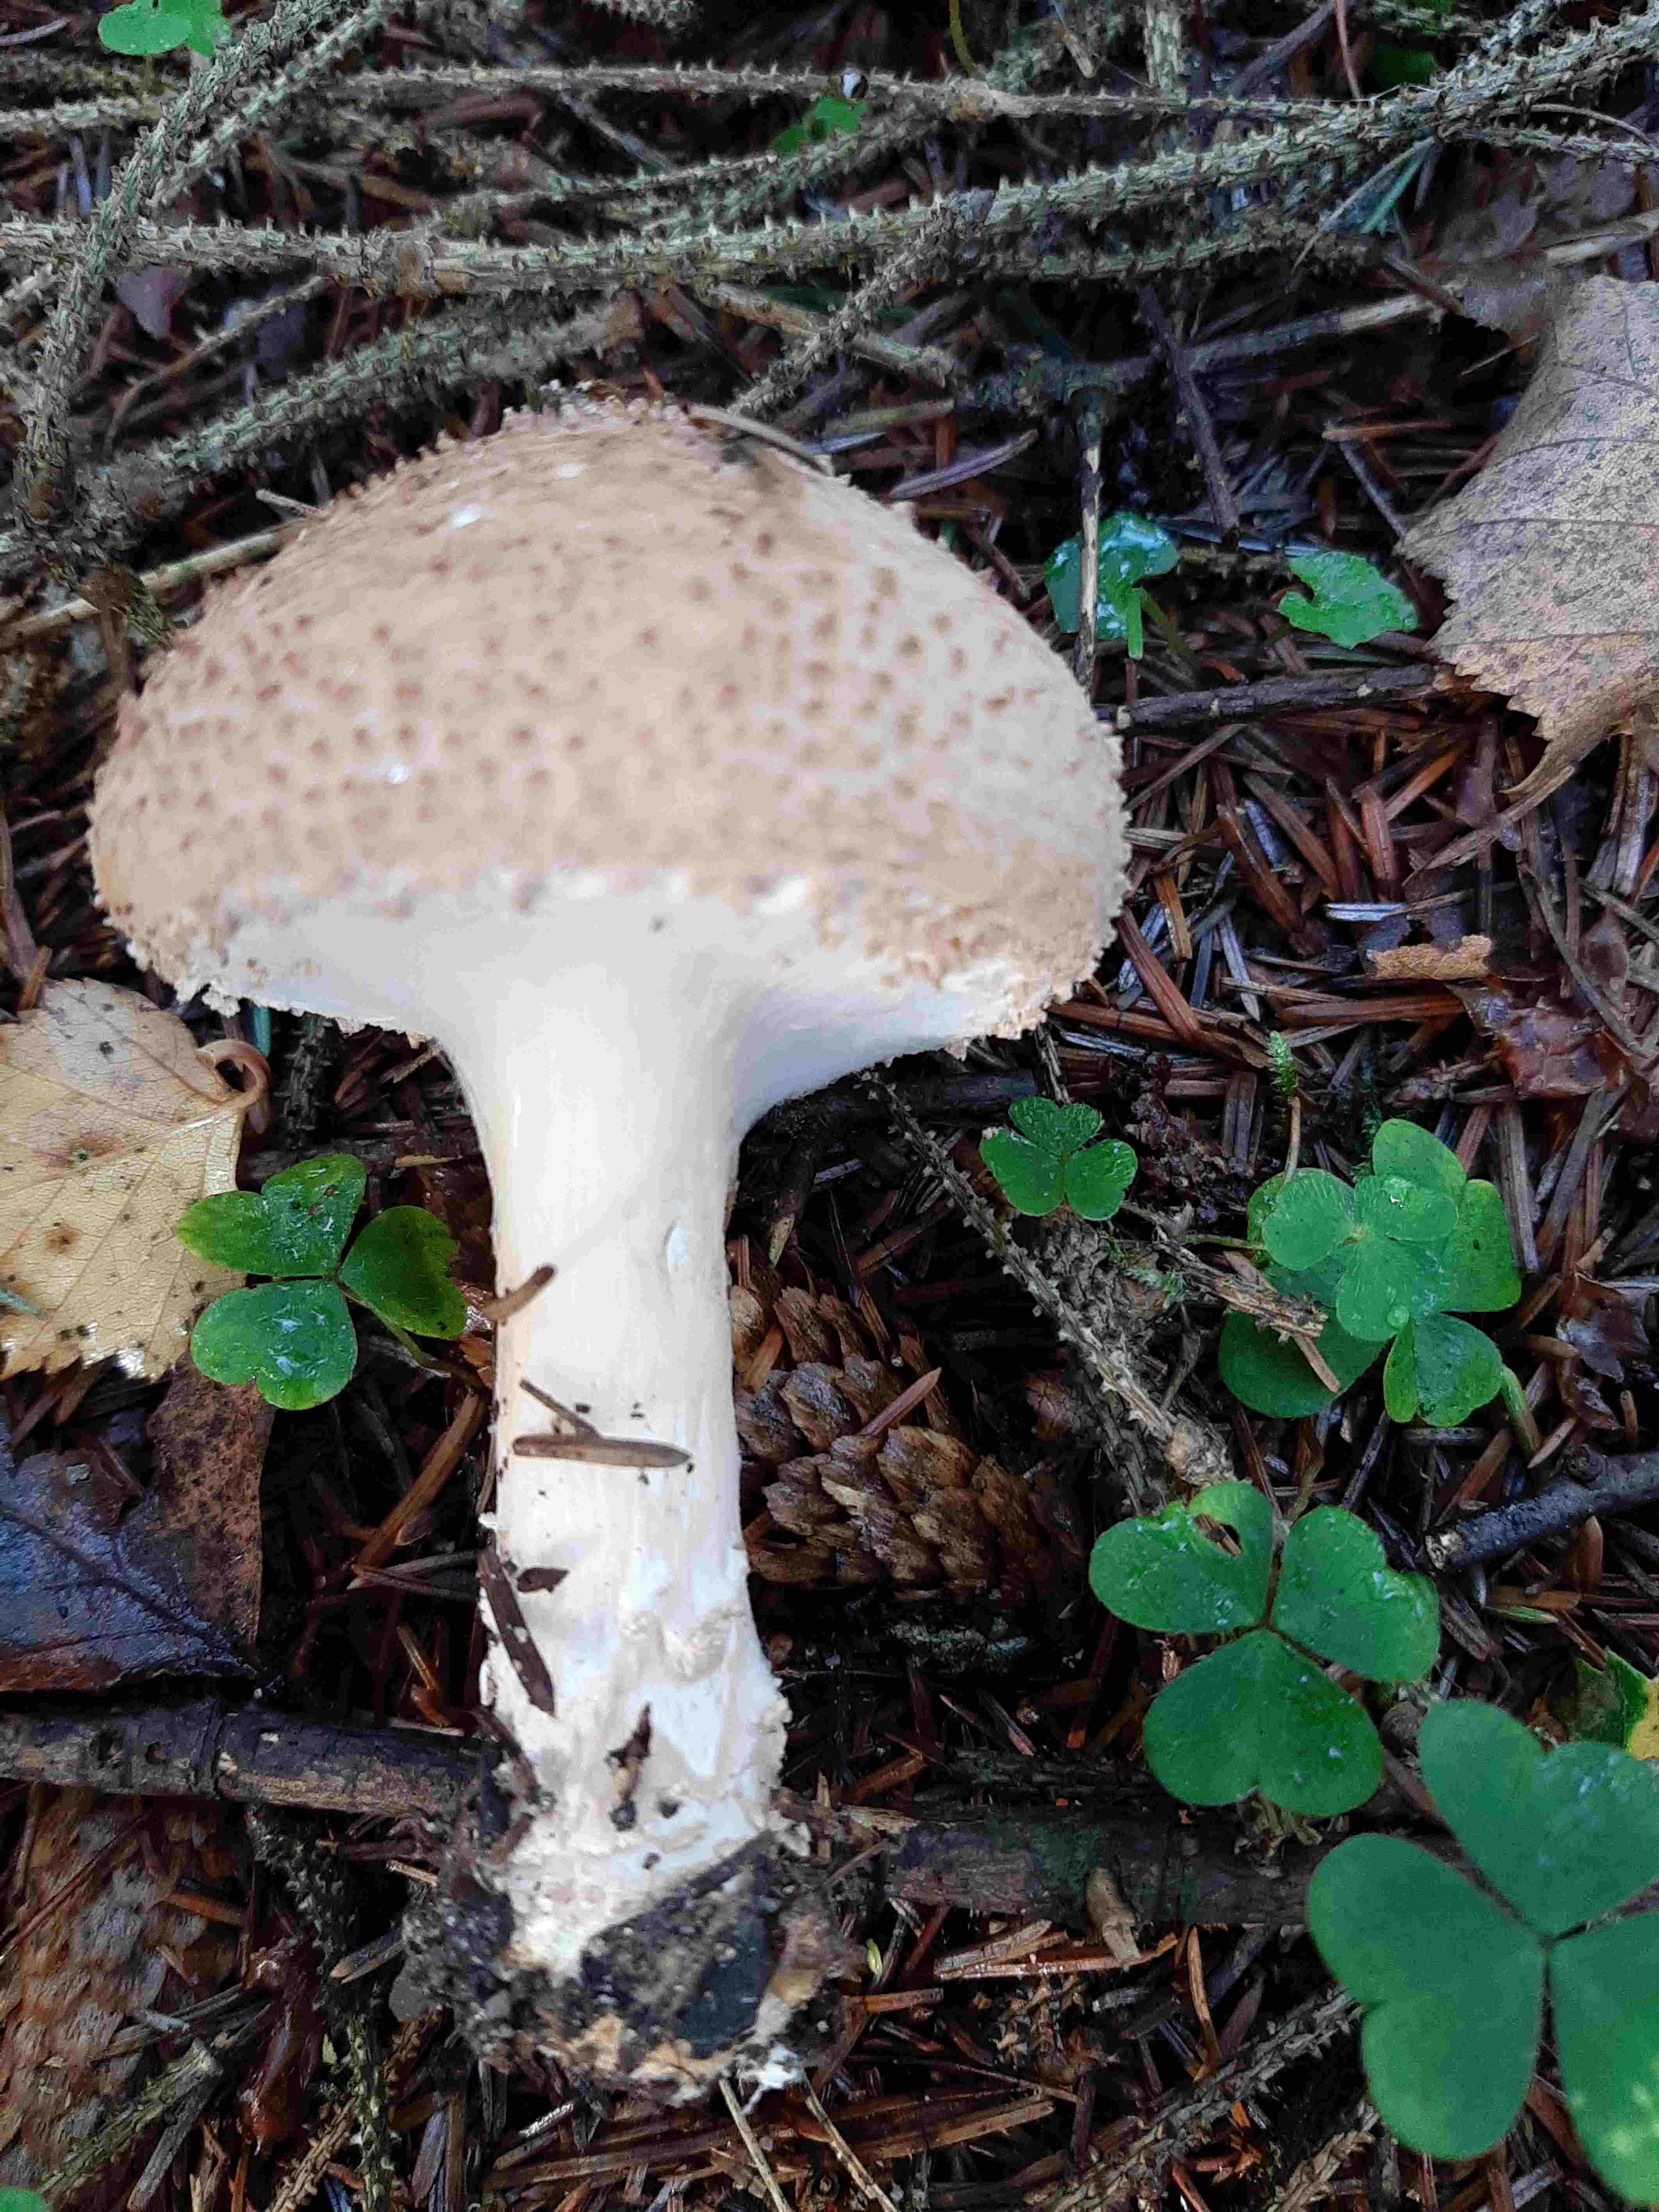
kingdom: Fungi
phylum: Basidiomycota
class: Agaricomycetes
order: Agaricales
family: Agaricaceae
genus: Echinoderma
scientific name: Echinoderma asperum
